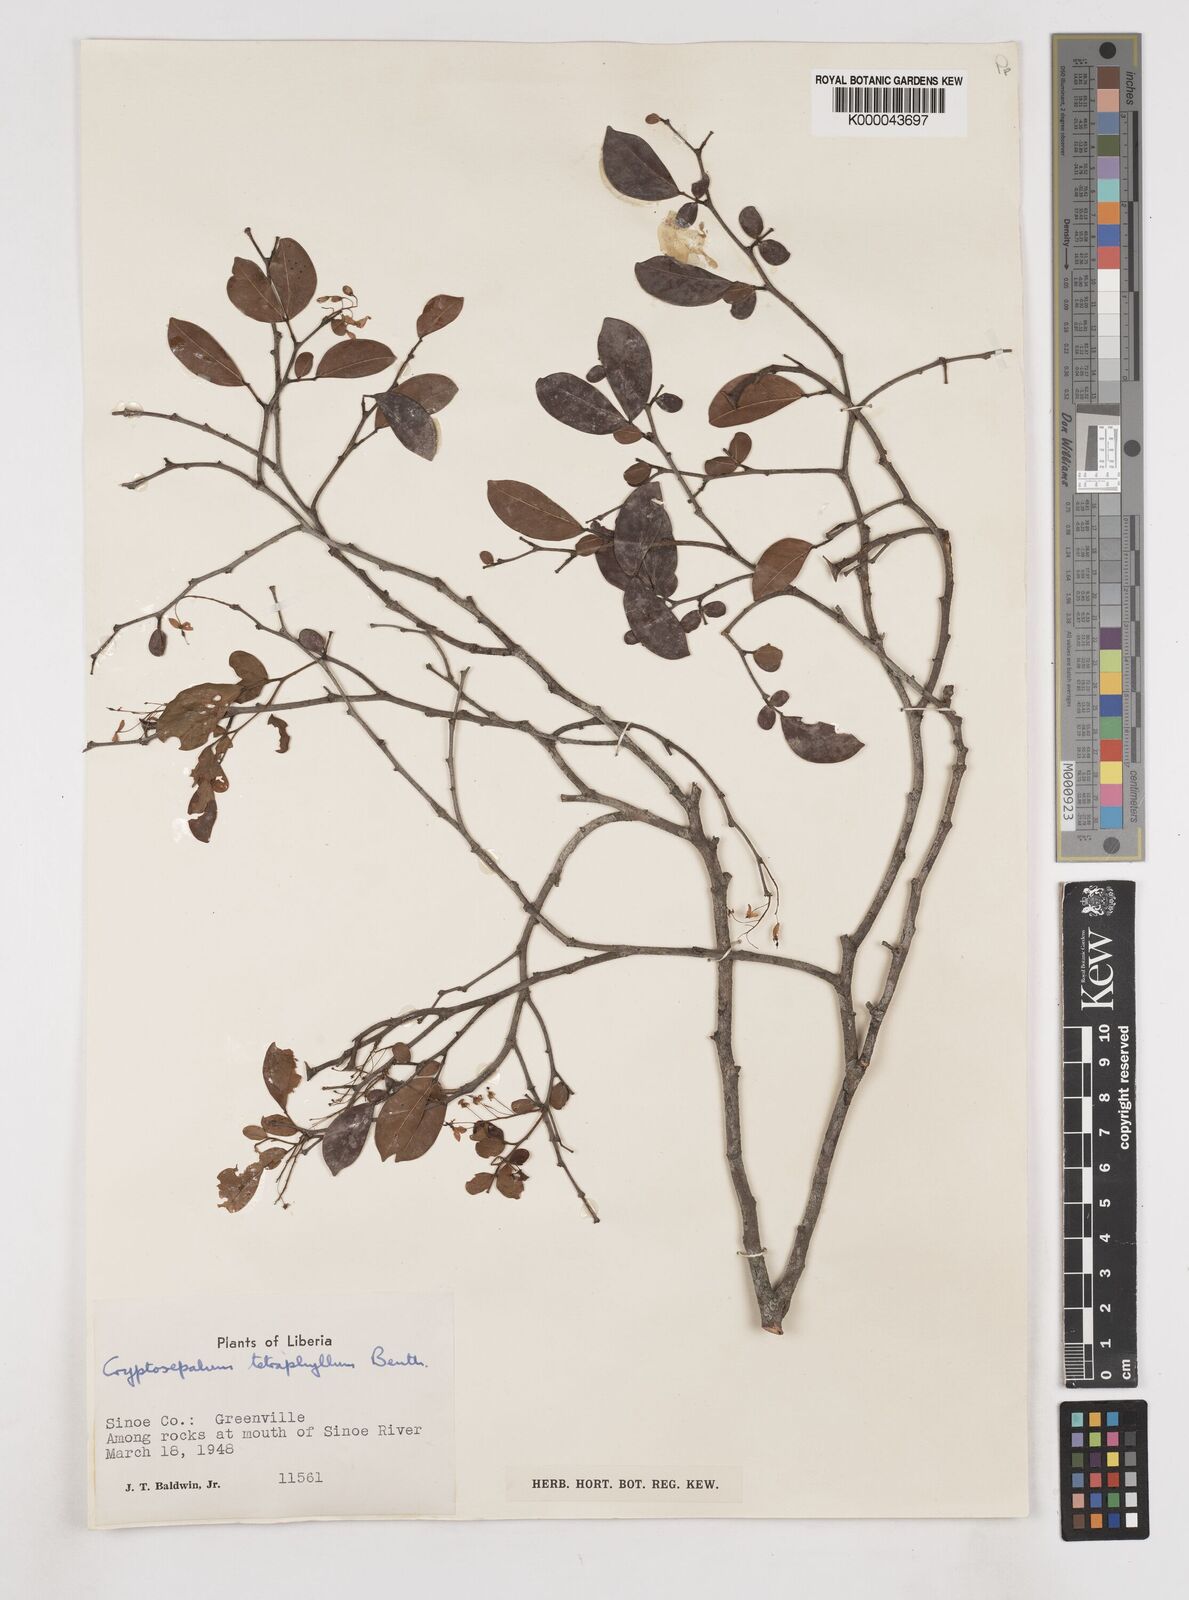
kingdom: Plantae
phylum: Tracheophyta
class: Magnoliopsida
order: Fabales
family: Fabaceae
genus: Cryptosepalum
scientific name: Cryptosepalum tetraphyllum
